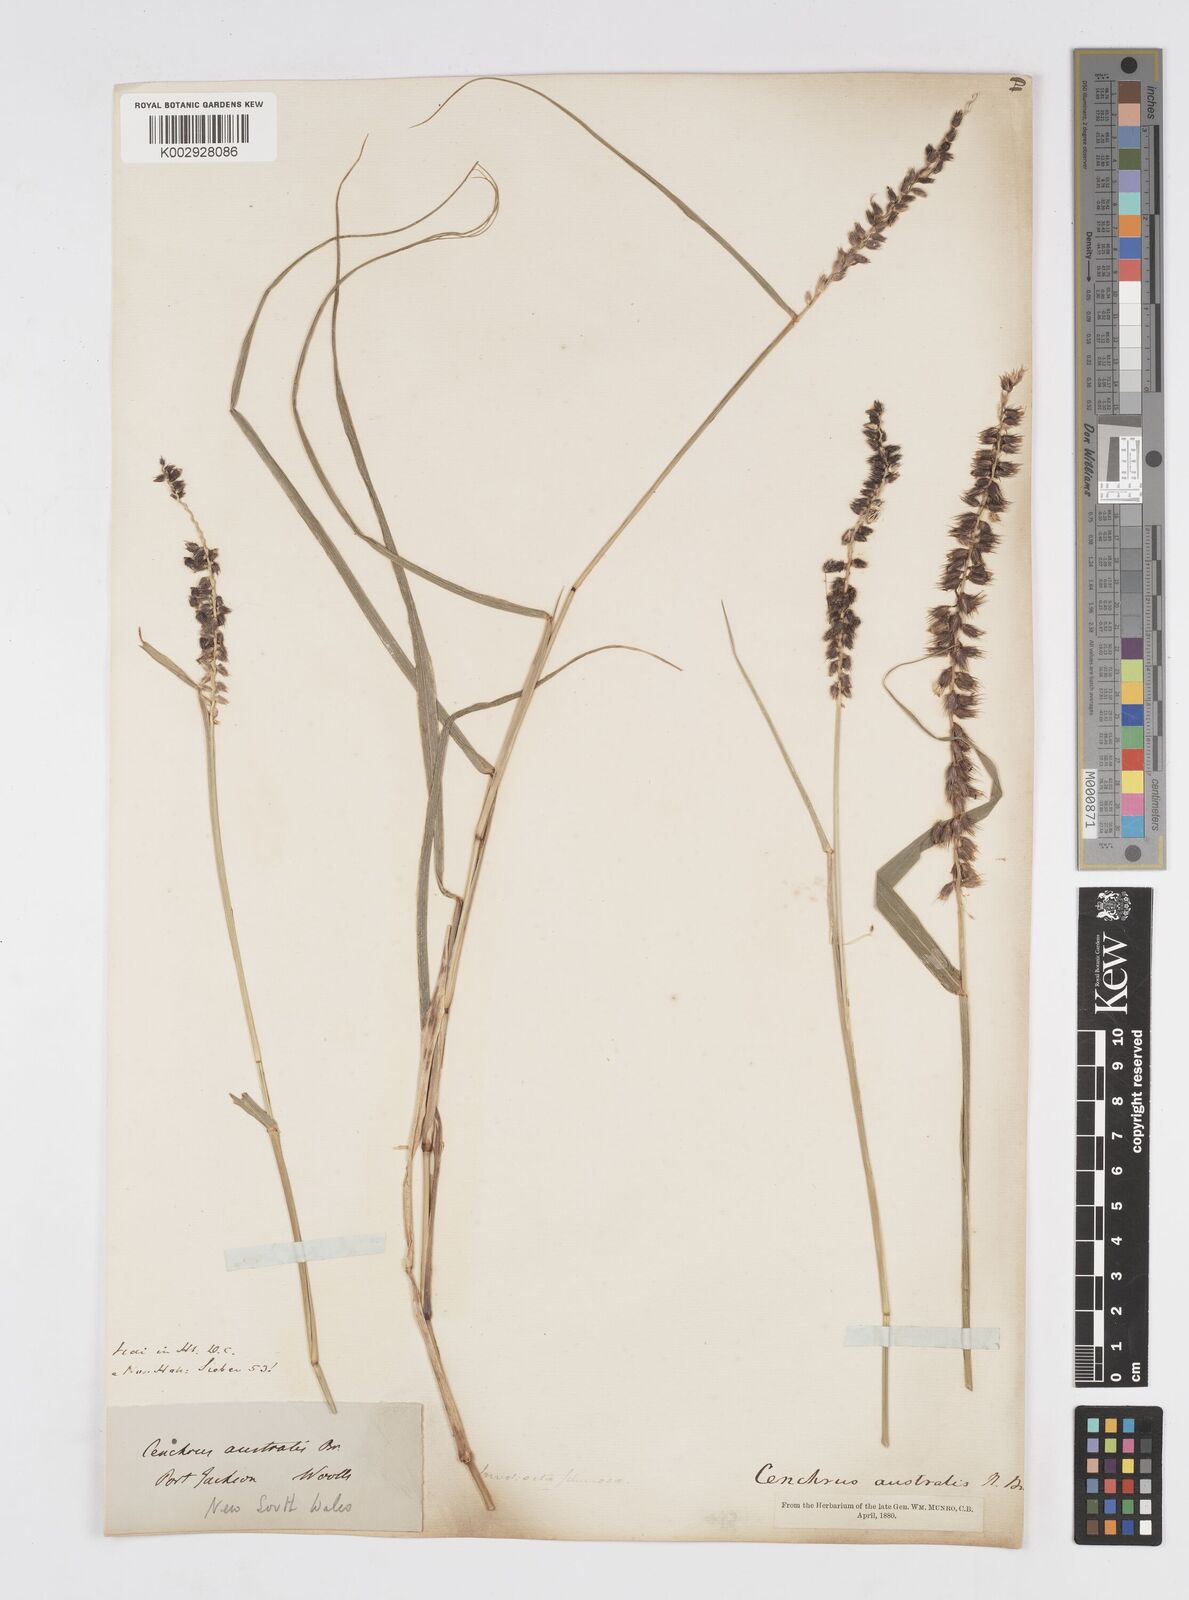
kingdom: Plantae
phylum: Tracheophyta
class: Liliopsida
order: Poales
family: Poaceae
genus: Cenchrus
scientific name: Cenchrus caliculatus
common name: Large bur grass
